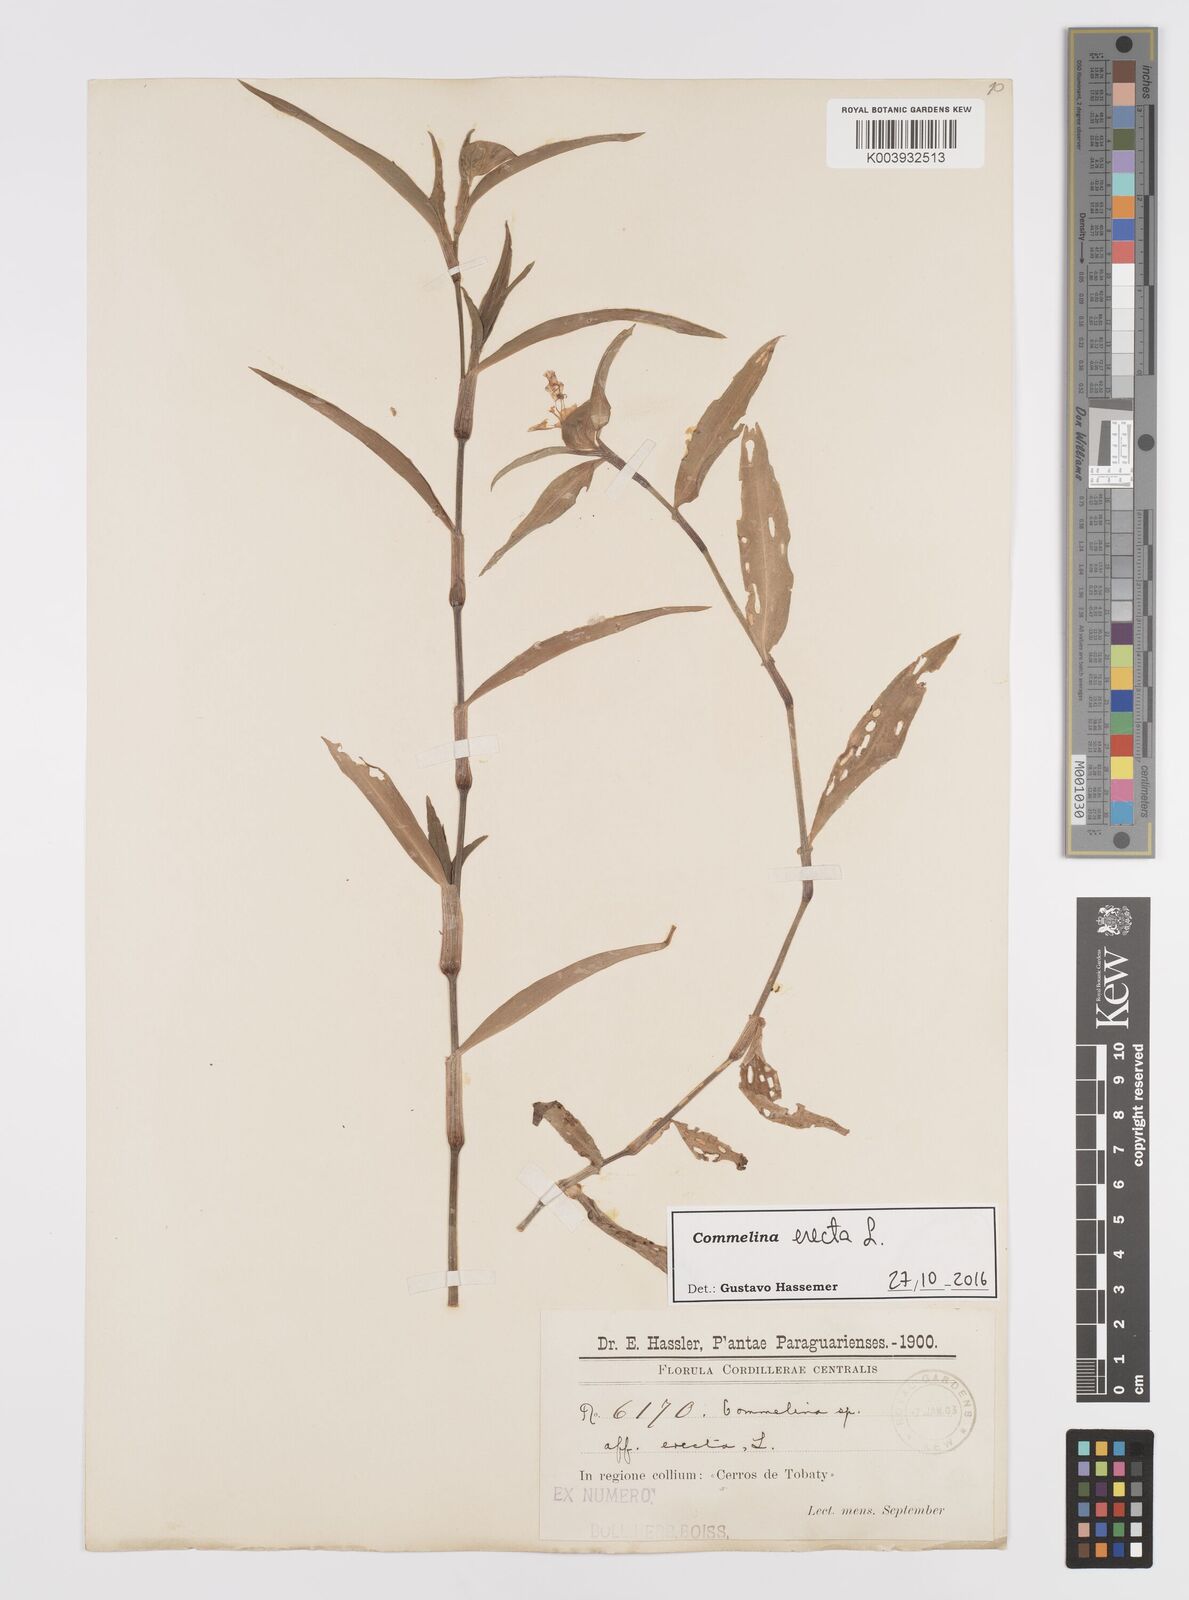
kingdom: Plantae
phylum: Tracheophyta
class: Liliopsida
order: Commelinales
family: Commelinaceae
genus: Commelina
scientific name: Commelina erecta
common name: Blousel blommetjie
